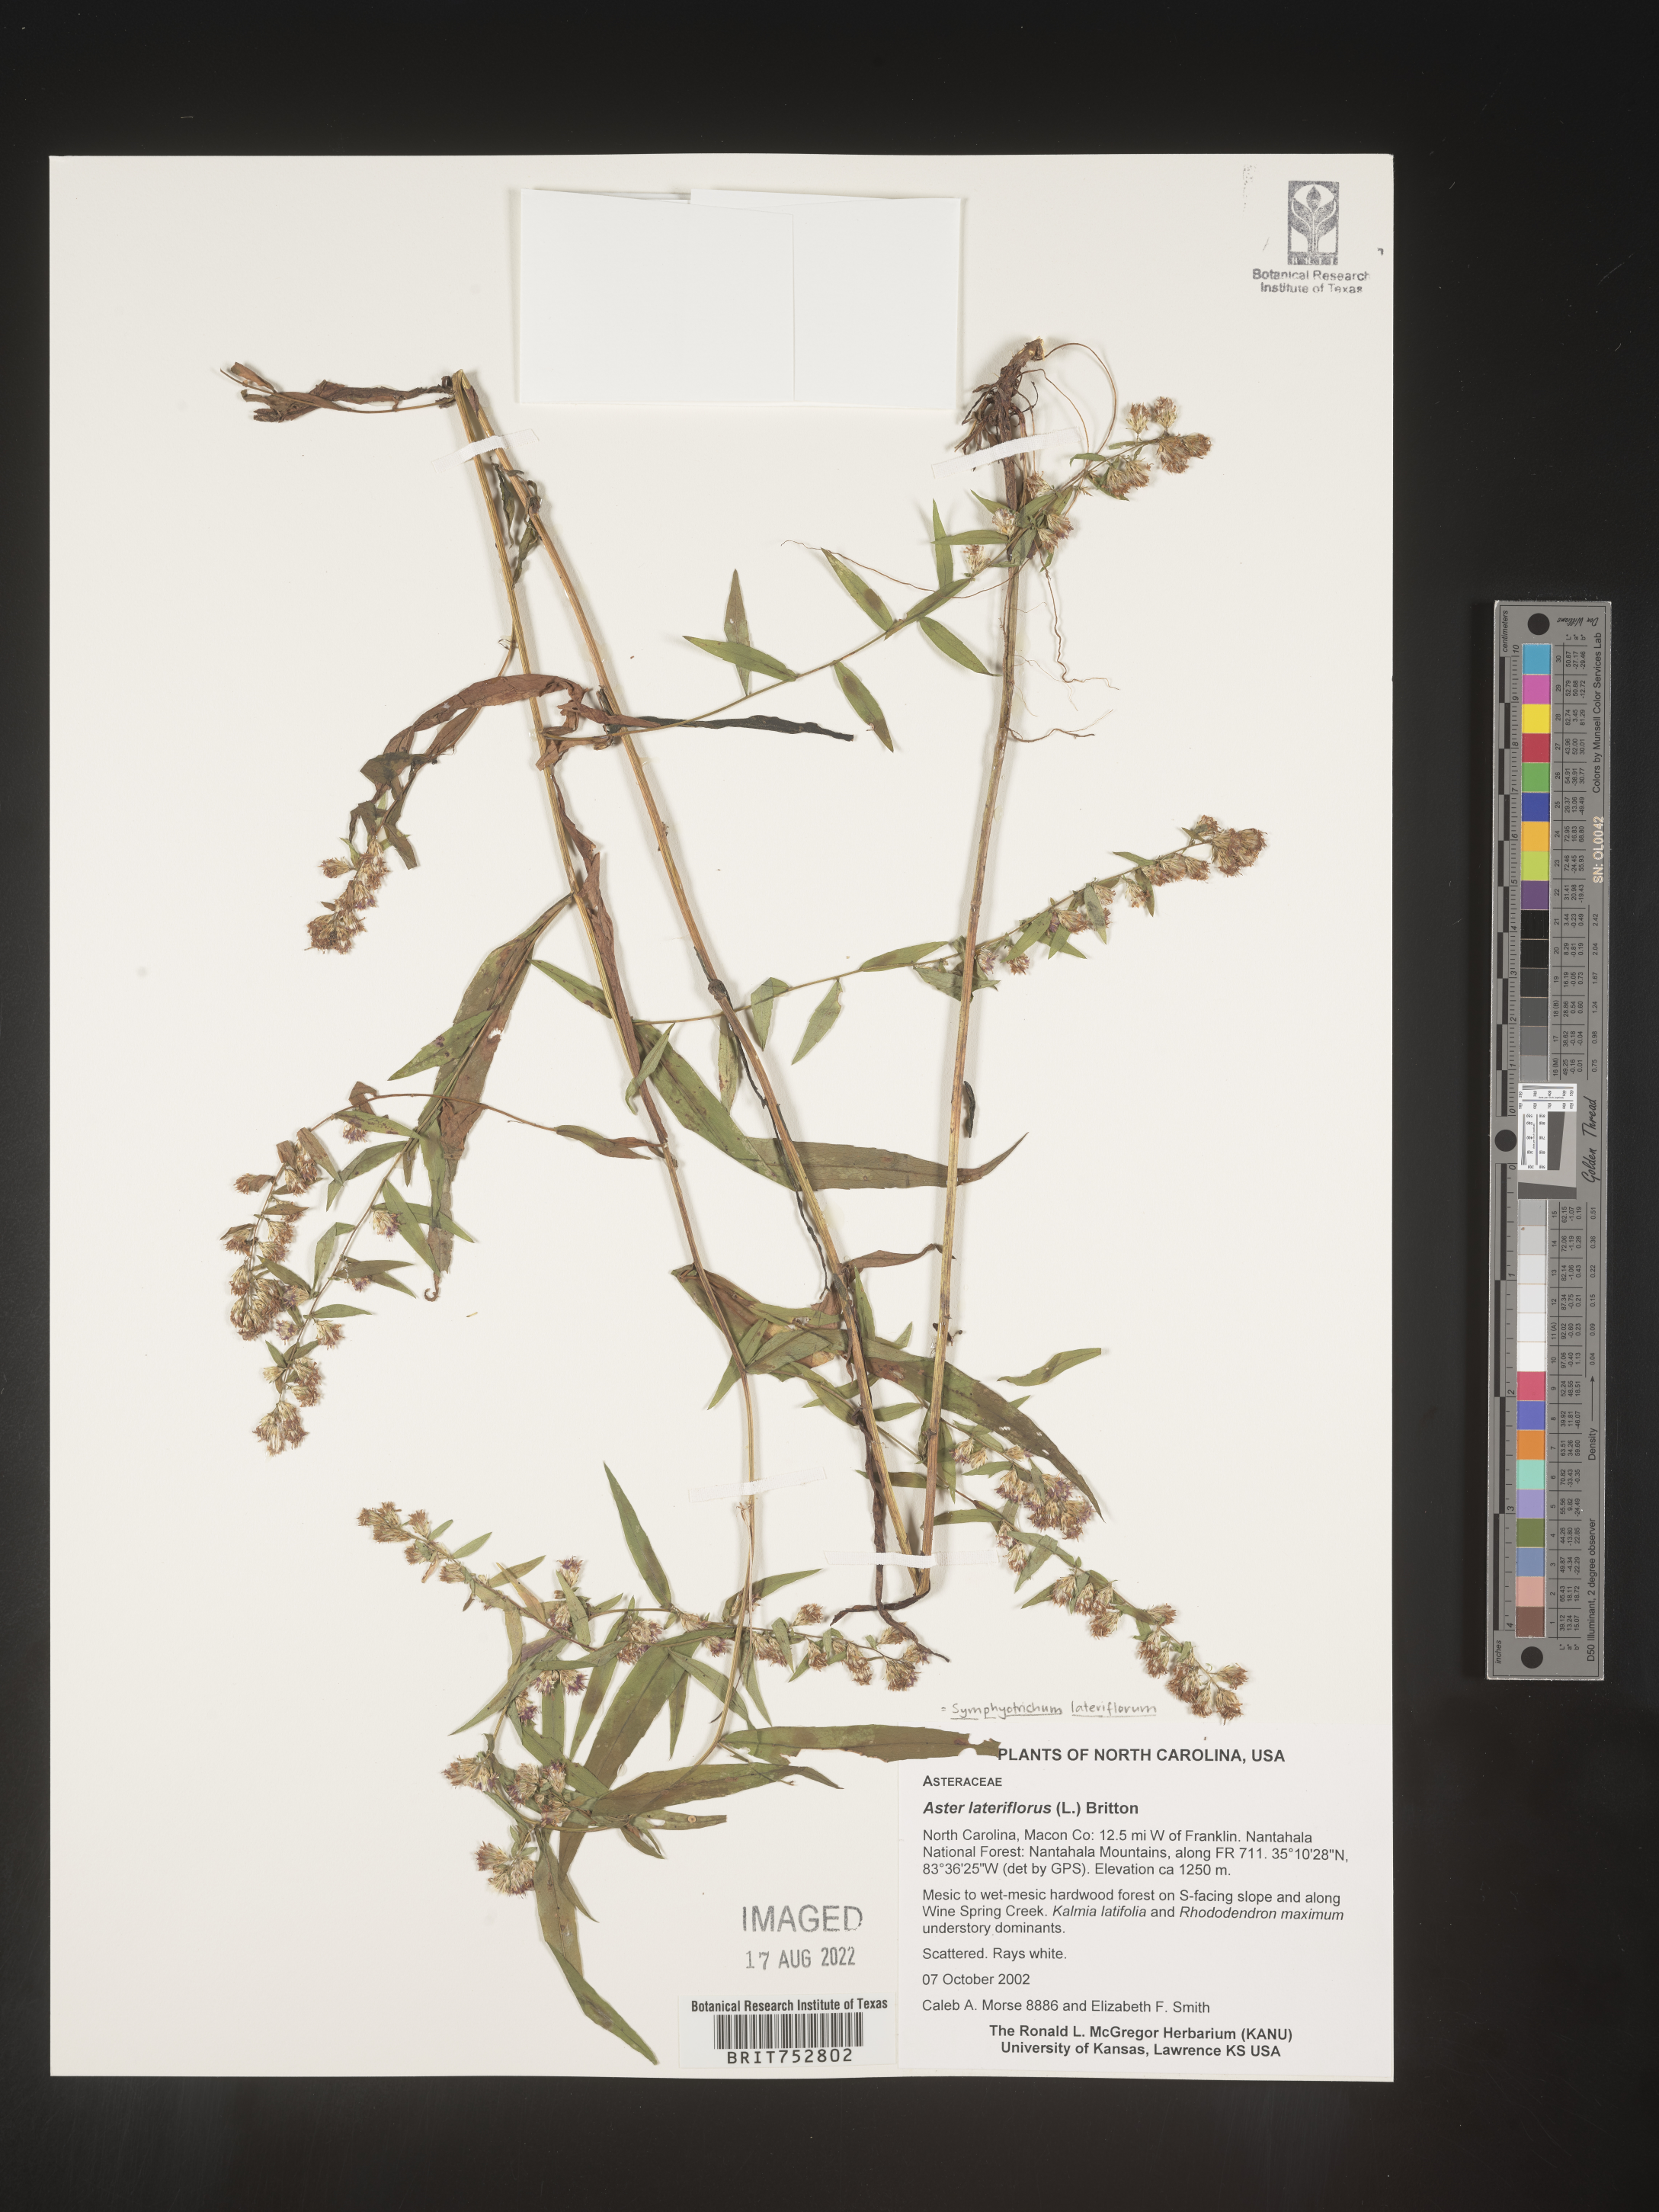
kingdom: Plantae
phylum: Tracheophyta
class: Magnoliopsida
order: Asterales
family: Asteraceae
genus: Symphyotrichum
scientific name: Symphyotrichum lateriflorum
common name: Calico aster
